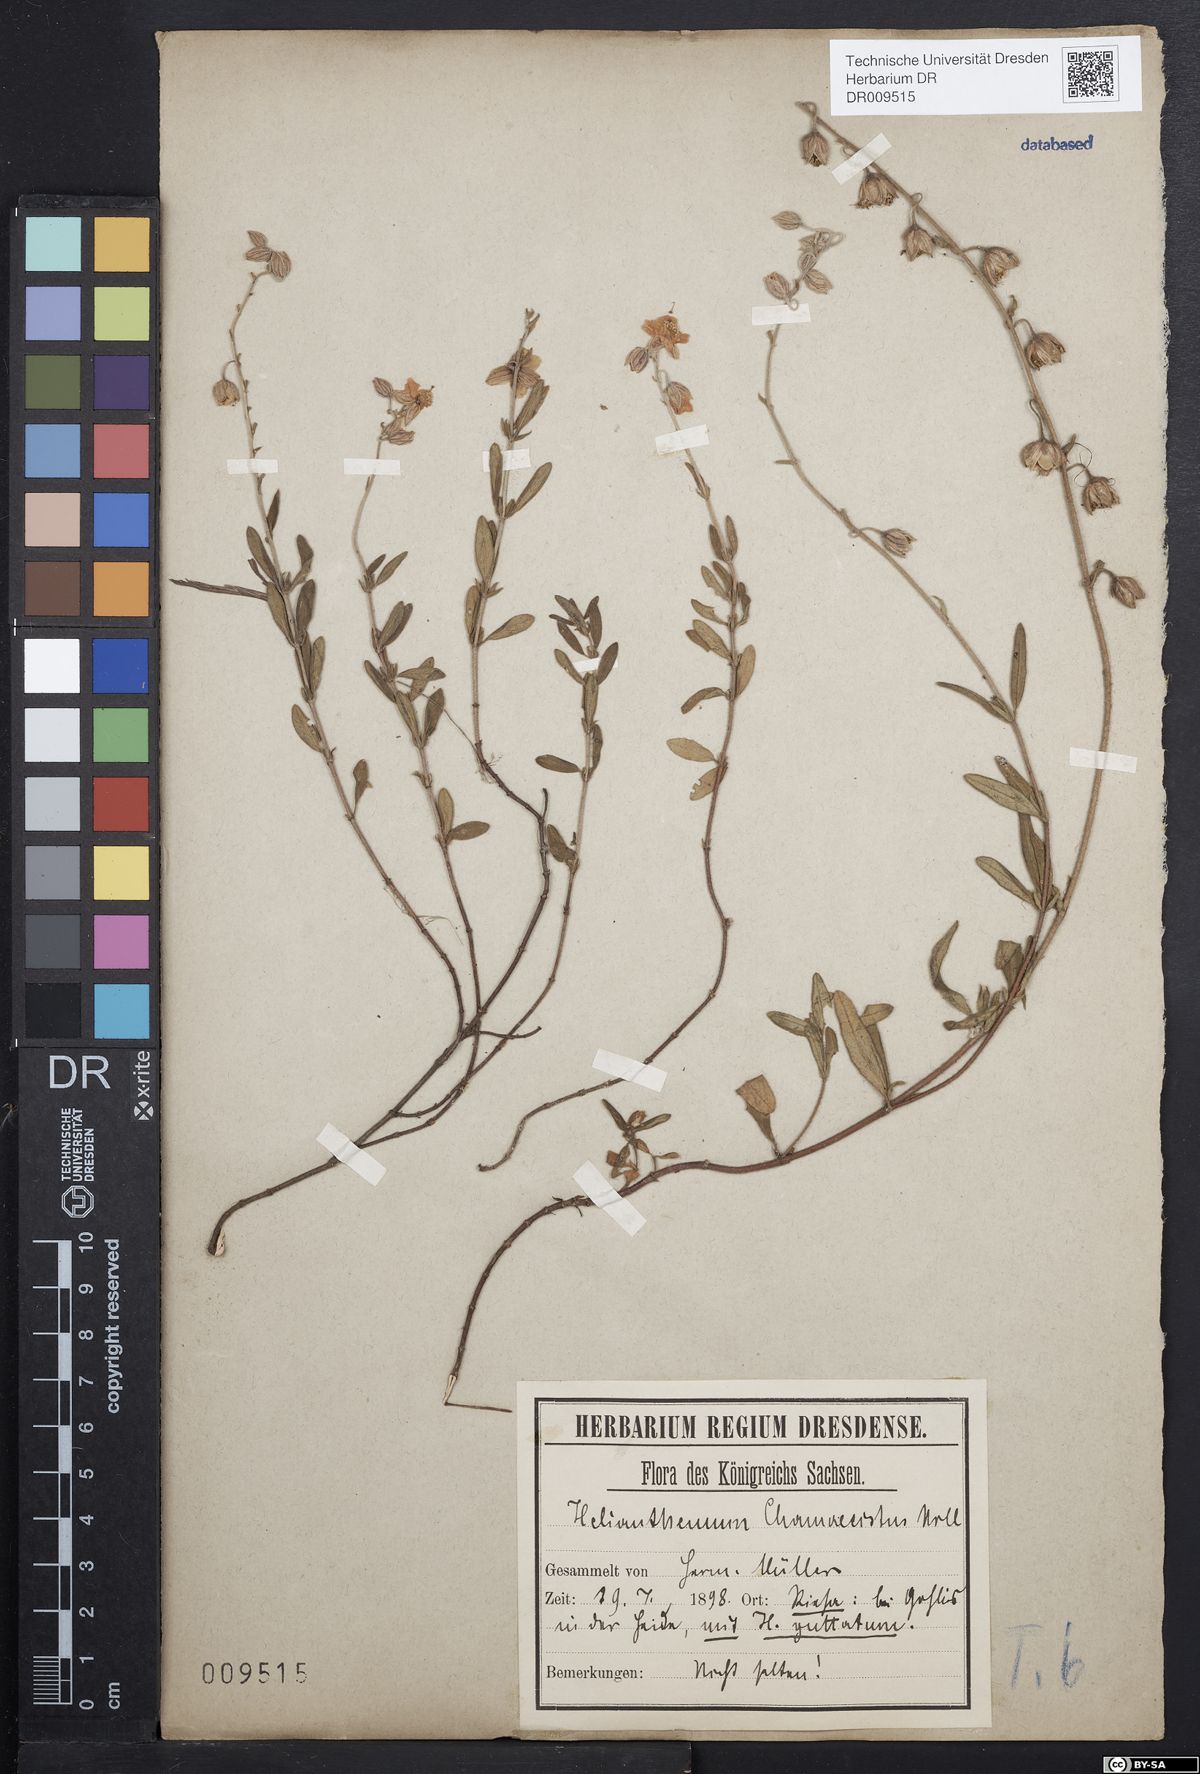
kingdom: Plantae
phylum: Tracheophyta
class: Magnoliopsida
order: Malvales
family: Cistaceae
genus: Helianthemum
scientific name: Helianthemum nummularium
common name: Common rock-rose
